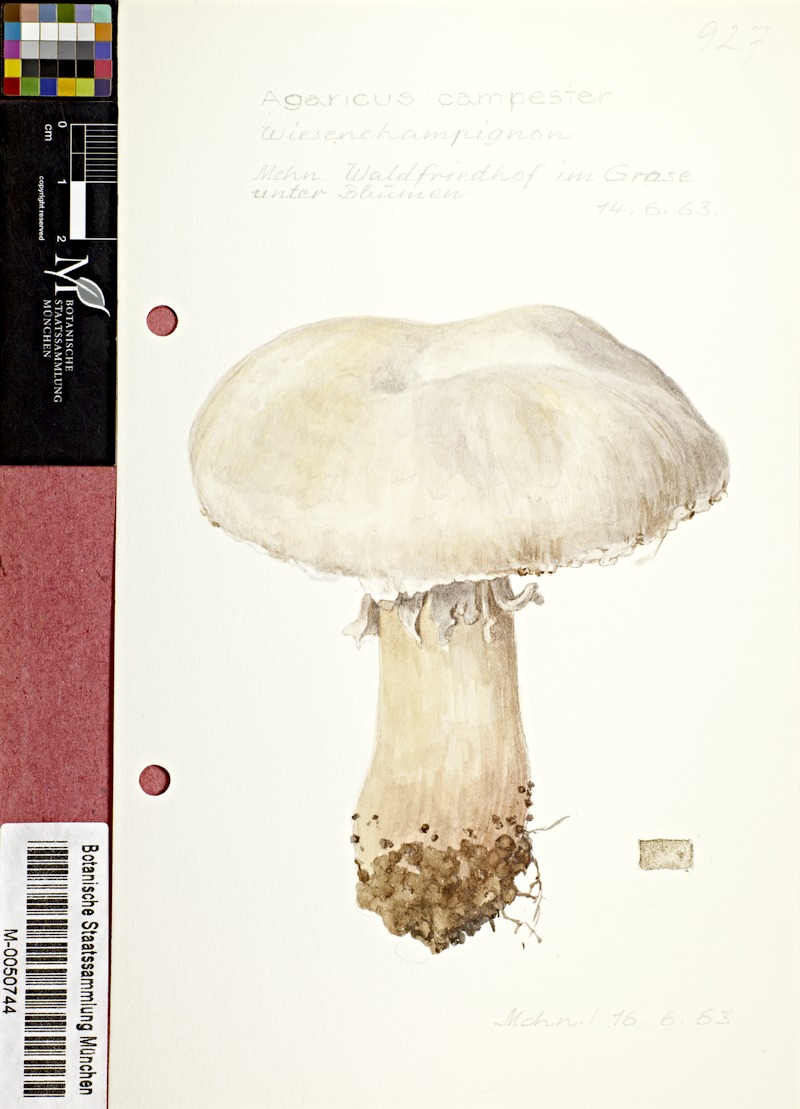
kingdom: Fungi
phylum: Basidiomycota
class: Agaricomycetes
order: Agaricales
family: Agaricaceae
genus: Agaricus
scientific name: Agaricus campestris
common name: Field mushroom
